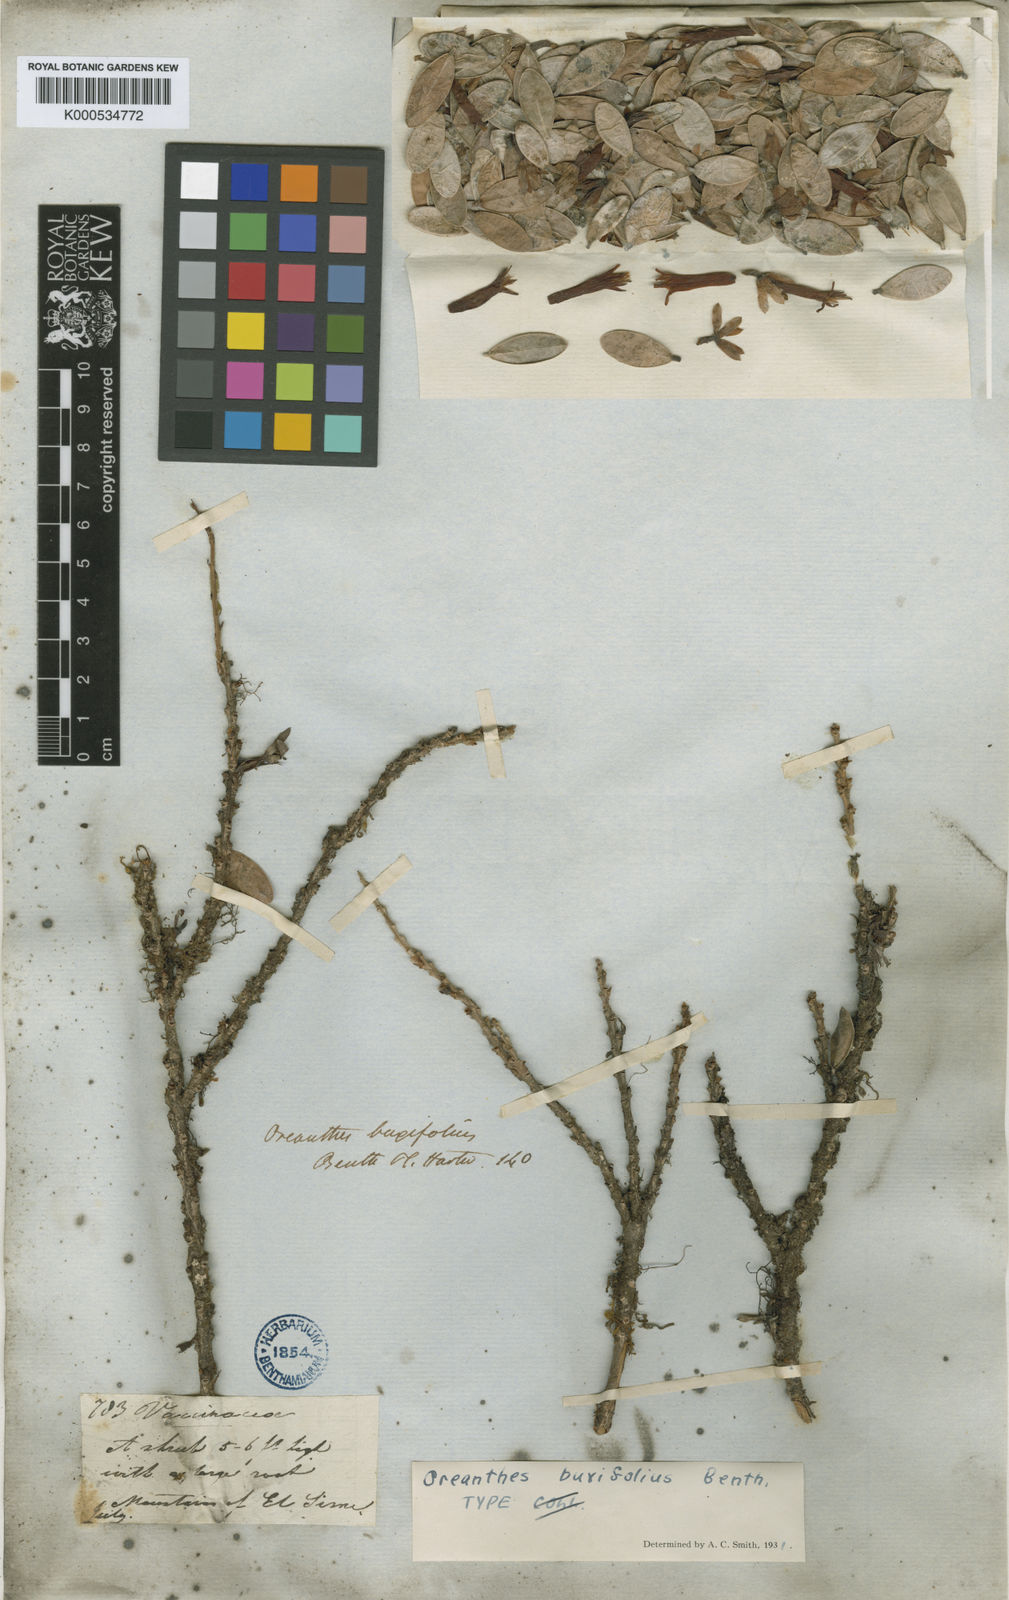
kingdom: Plantae
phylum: Tracheophyta
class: Magnoliopsida
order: Ericales
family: Ericaceae
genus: Oreanthes
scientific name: Oreanthes buxifolius
